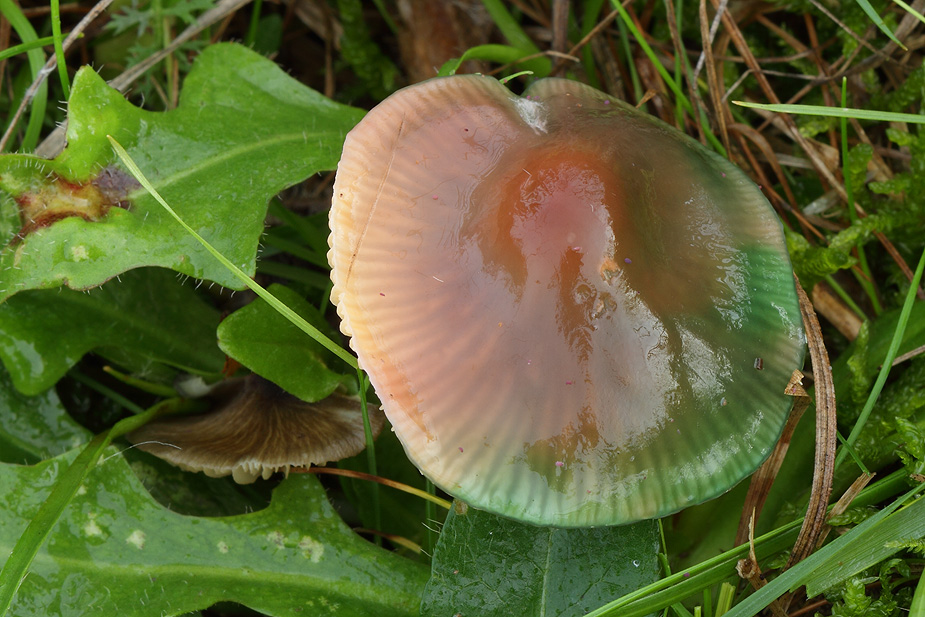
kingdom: Fungi
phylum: Basidiomycota
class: Agaricomycetes
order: Agaricales
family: Hygrophoraceae
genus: Gliophorus
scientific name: Gliophorus psittacinus
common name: papegøje-vokshat
